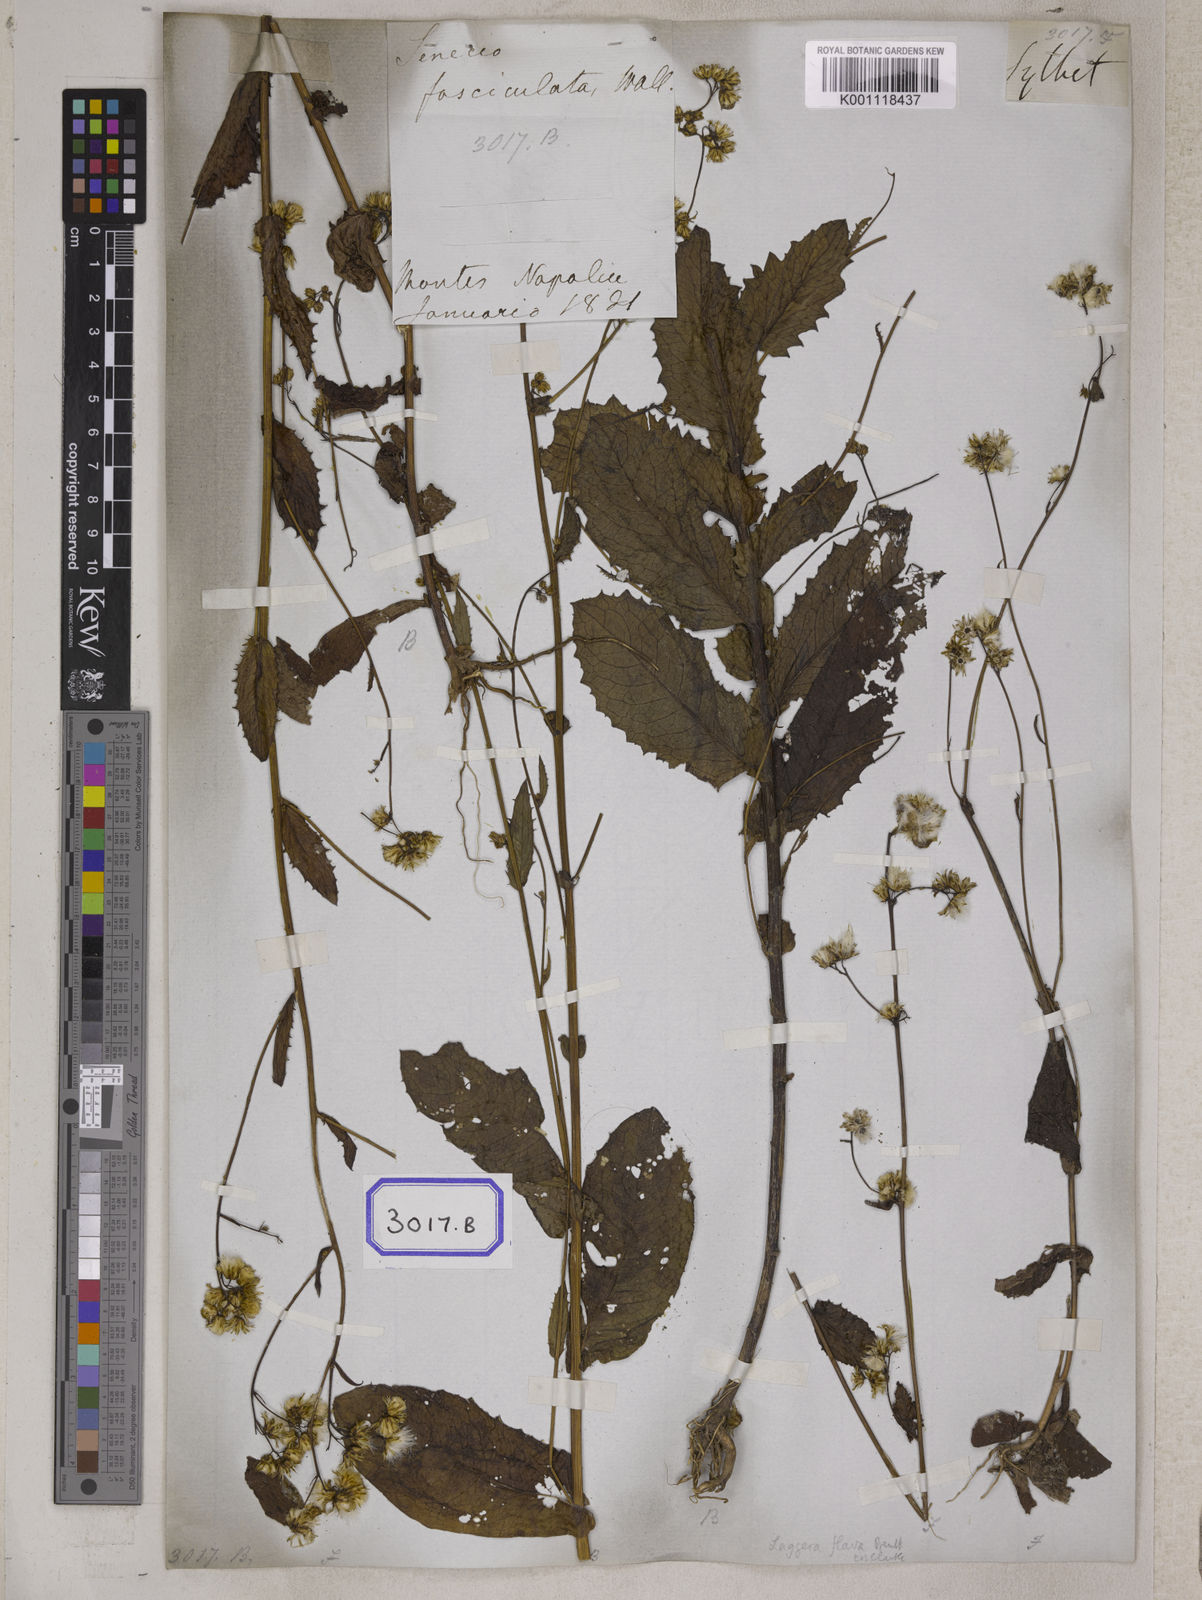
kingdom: Plantae
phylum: Tracheophyta
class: Magnoliopsida
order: Asterales
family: Asteraceae
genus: Blumea
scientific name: Blumea sessiliflora
